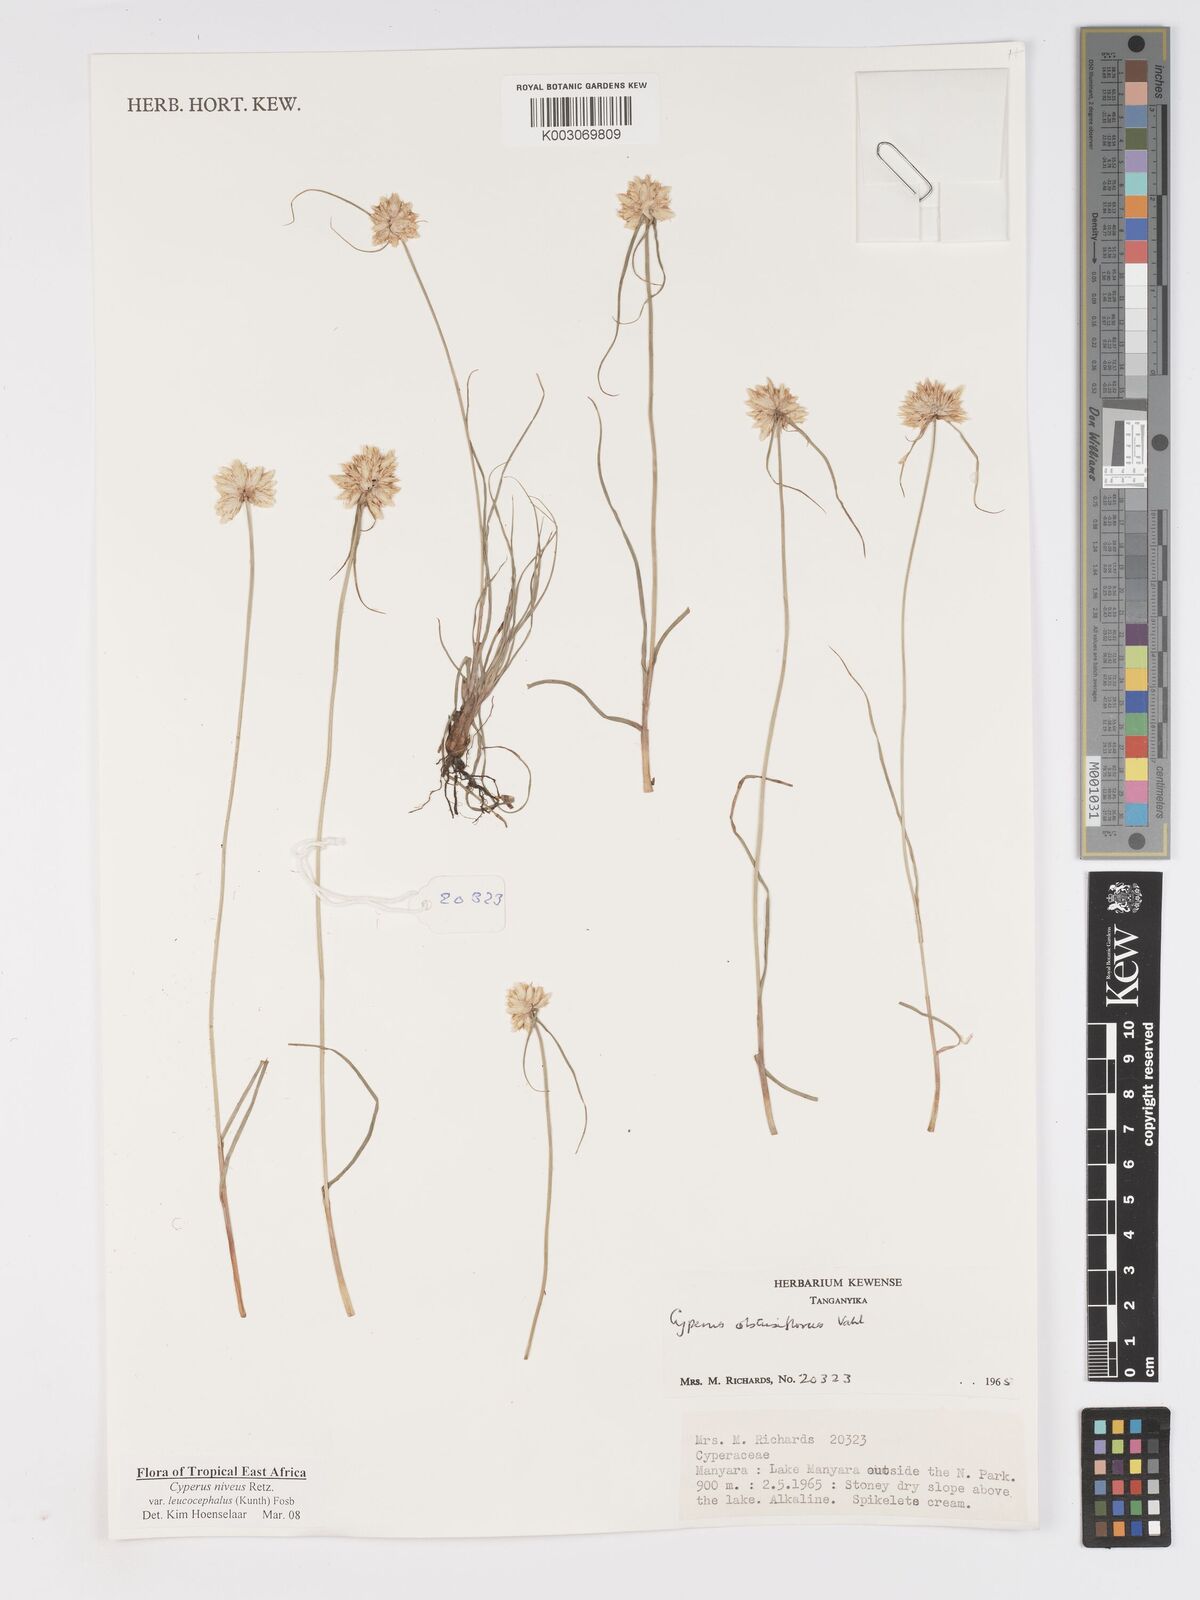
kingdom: Plantae
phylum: Tracheophyta
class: Liliopsida
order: Poales
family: Cyperaceae
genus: Cyperus
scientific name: Cyperus niveus
